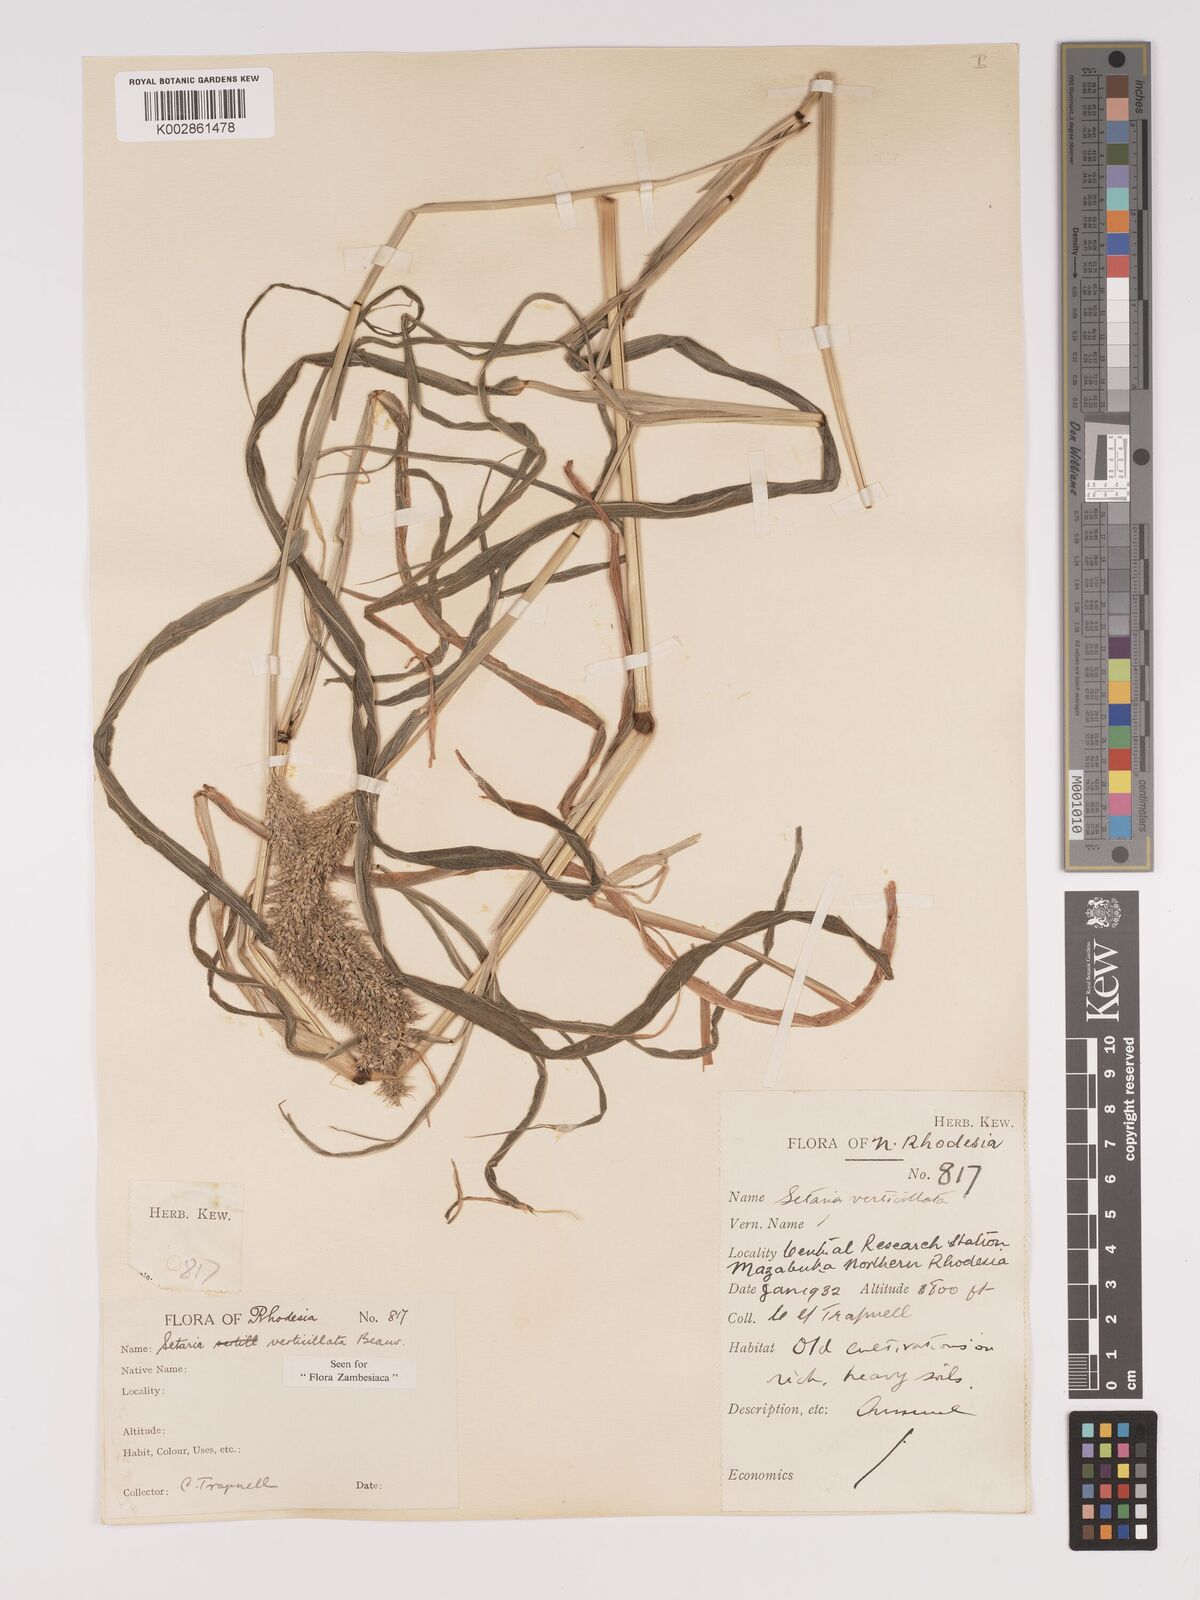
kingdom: Plantae
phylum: Tracheophyta
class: Liliopsida
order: Poales
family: Poaceae
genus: Setaria
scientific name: Setaria verticillata
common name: Hooked bristlegrass
